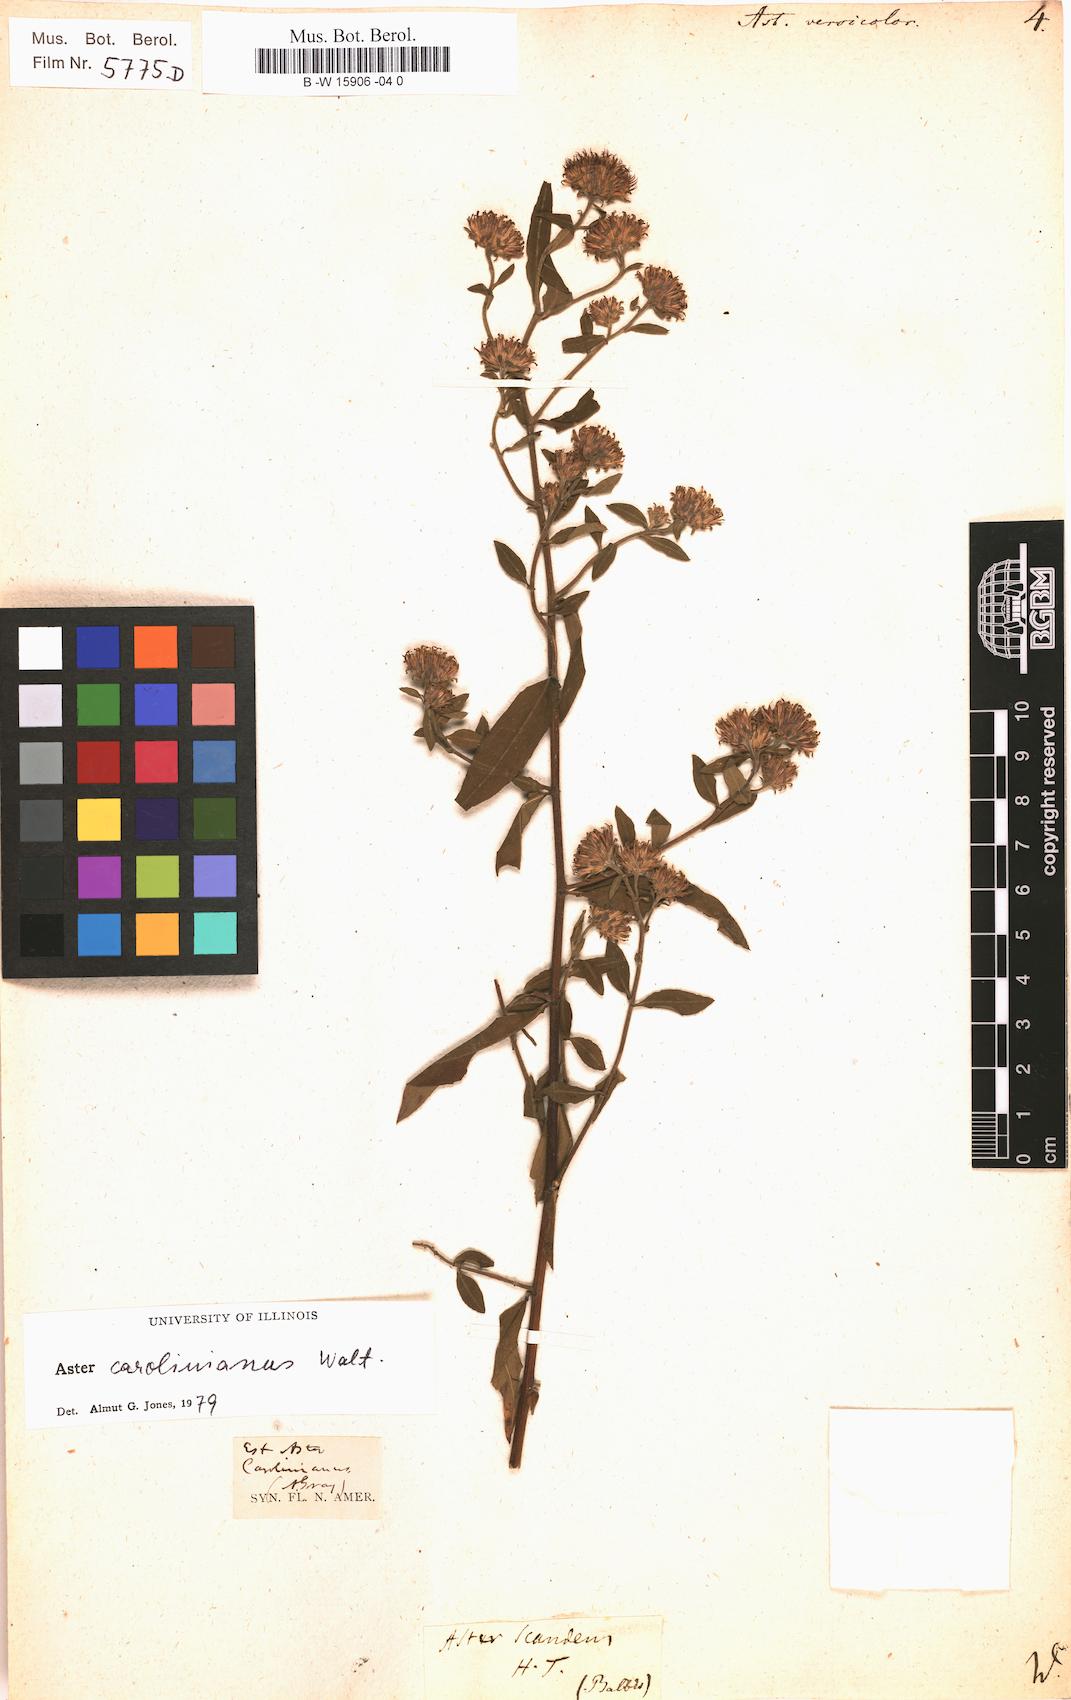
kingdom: Plantae
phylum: Tracheophyta
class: Magnoliopsida
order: Asterales
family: Asteraceae
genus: Aster
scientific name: Aster versicolor
